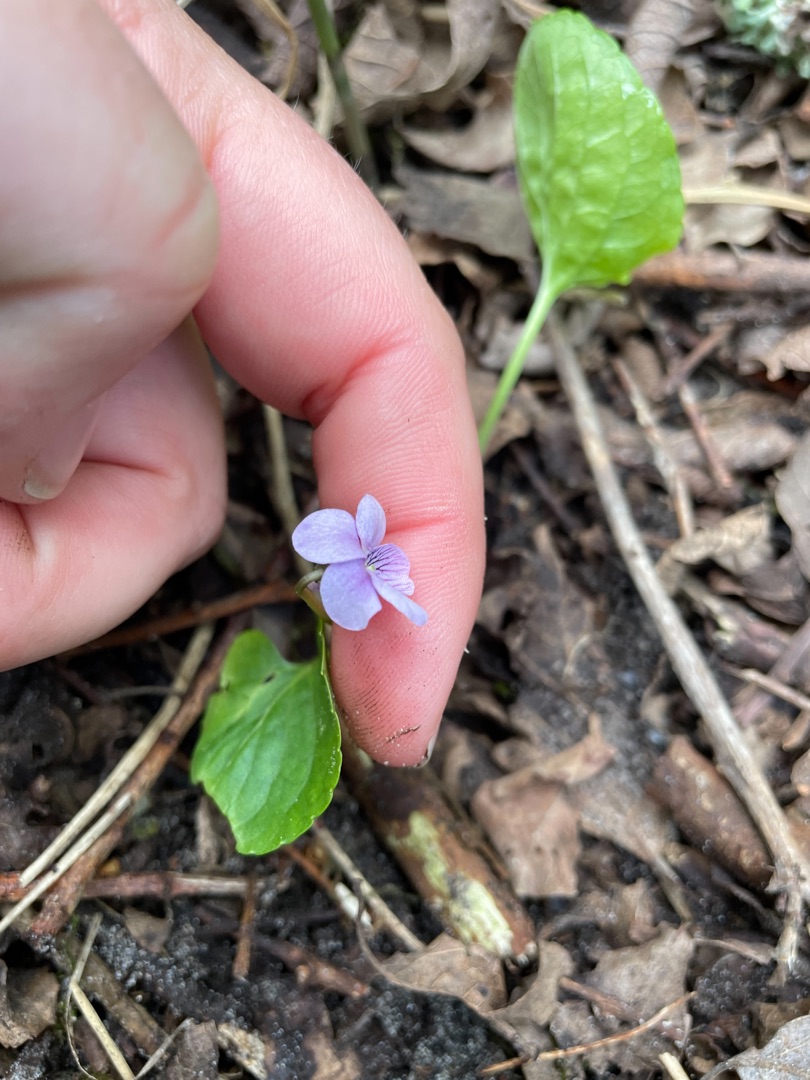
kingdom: Plantae
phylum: Tracheophyta
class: Magnoliopsida
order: Malpighiales
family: Violaceae
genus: Viola
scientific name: Viola palustris
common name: Eng-viol
